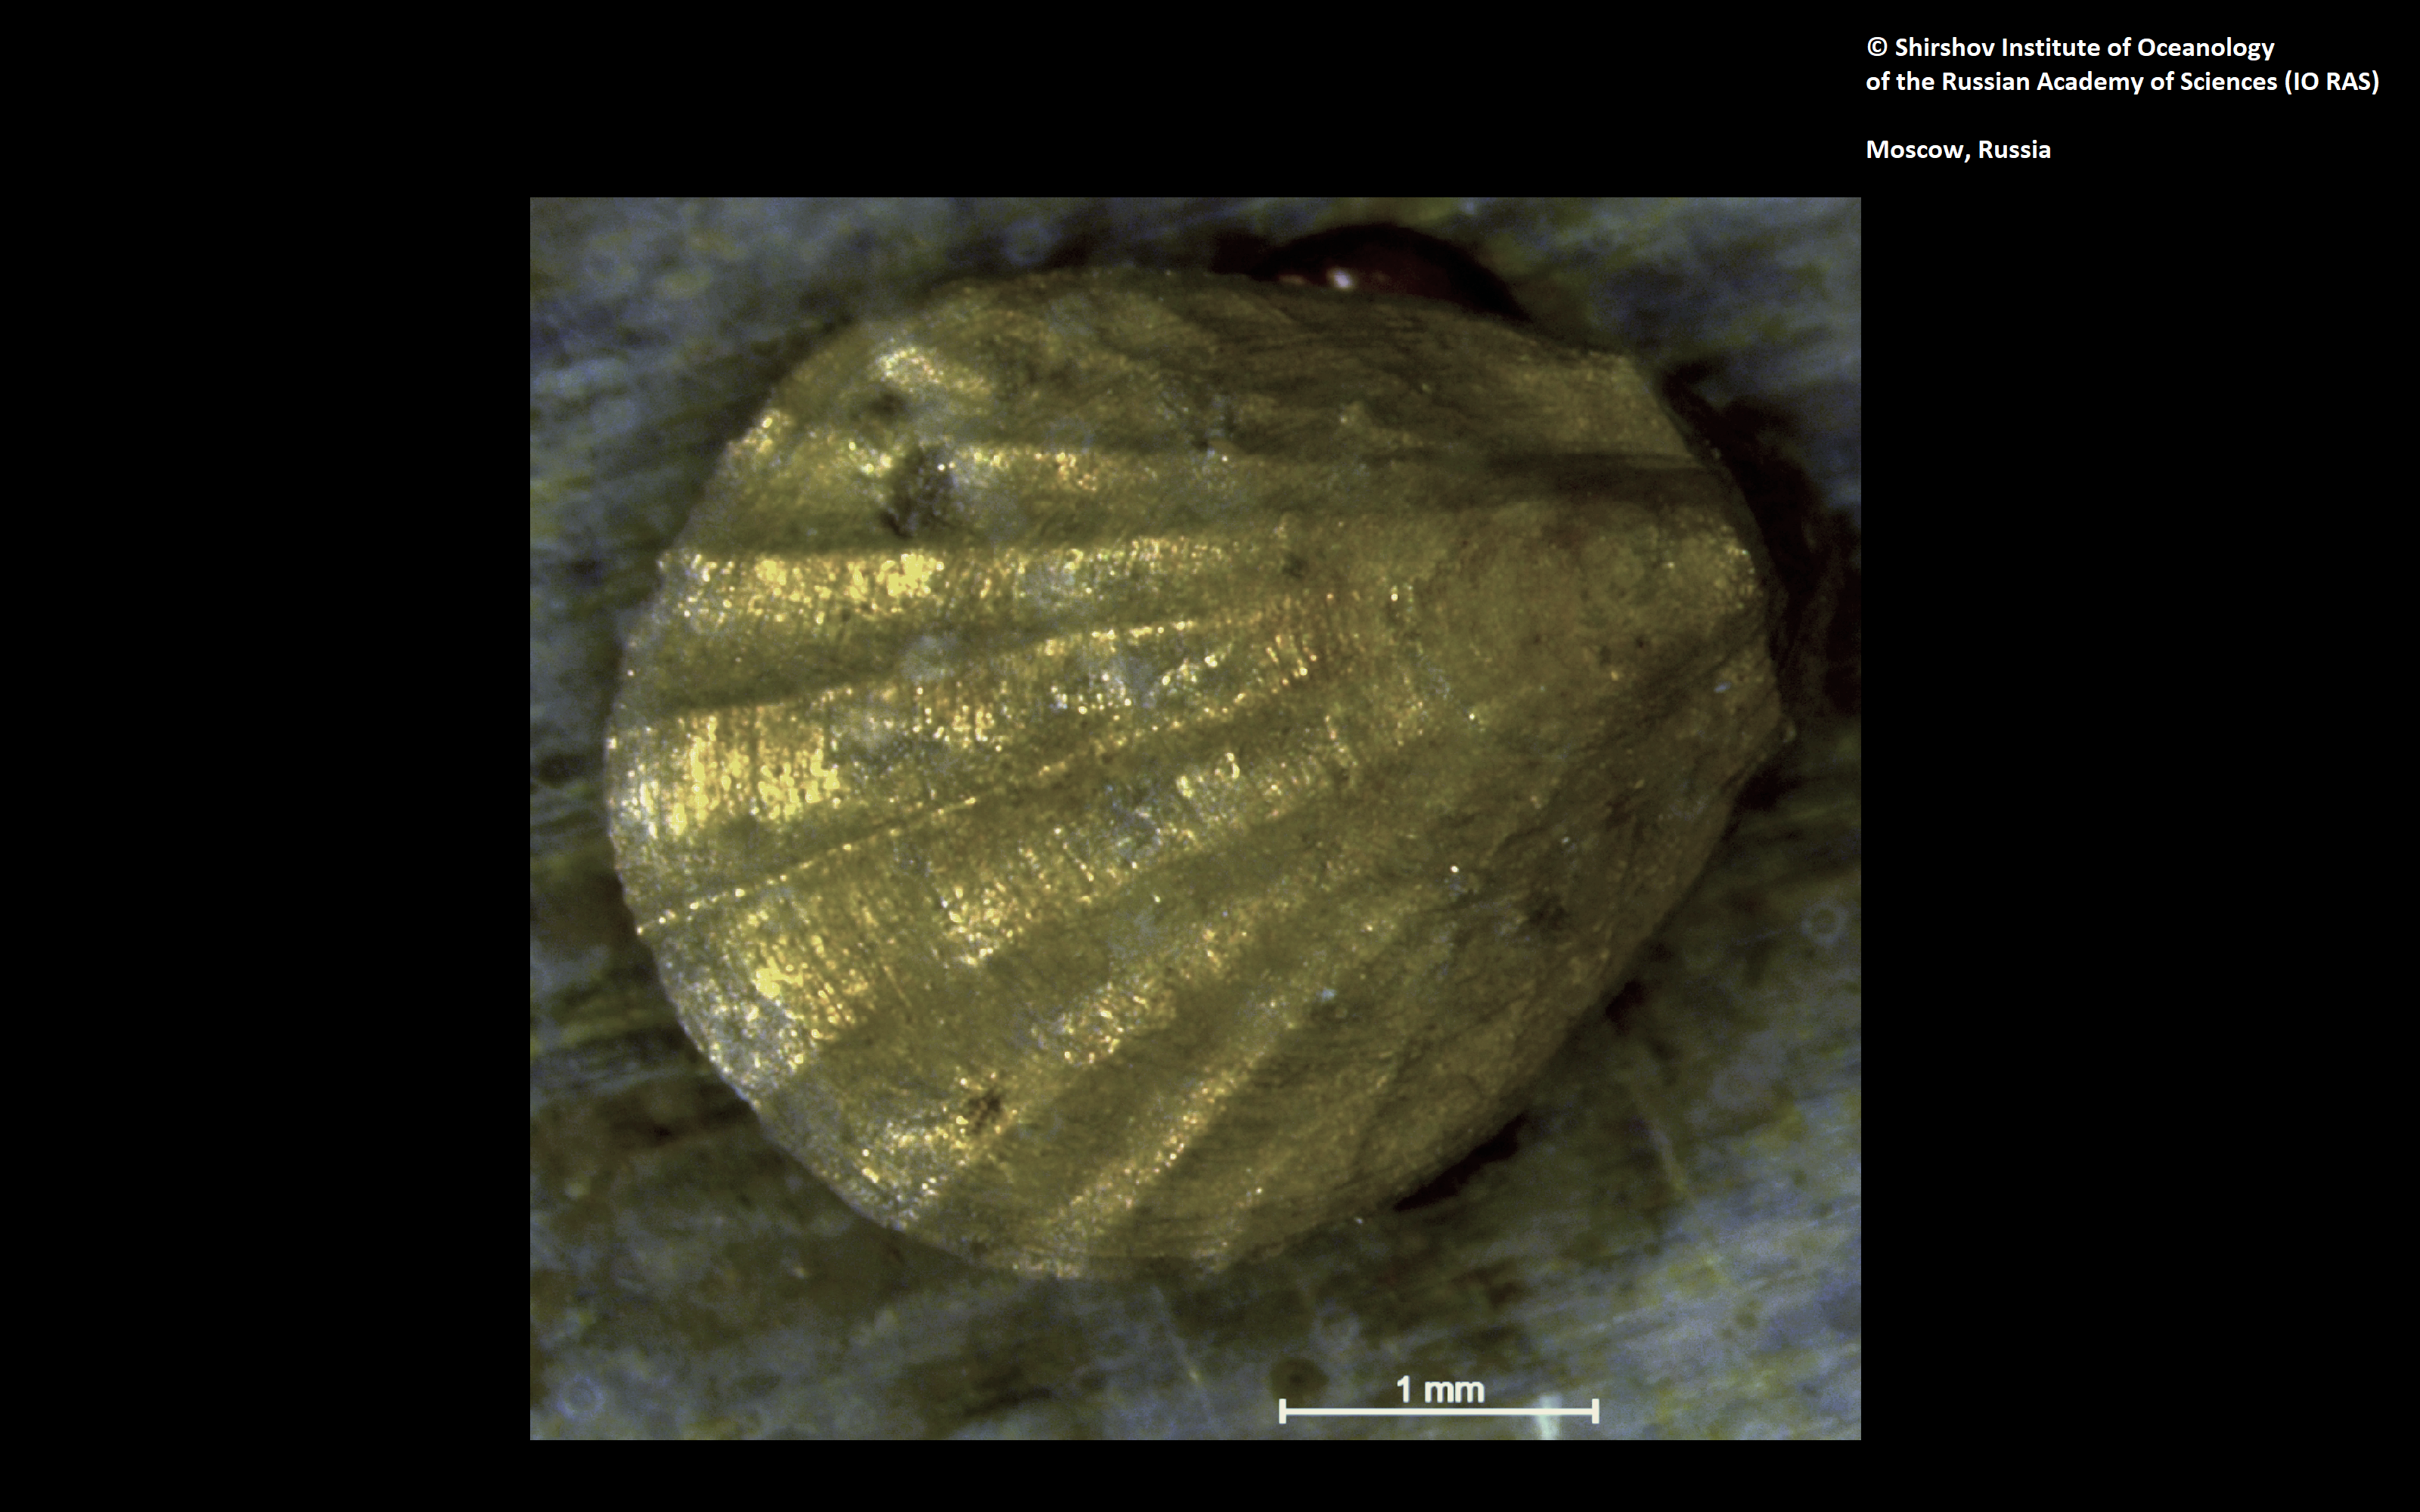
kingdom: Animalia
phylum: Brachiopoda
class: Rhynchonellata
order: Terebratulida
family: Chlidonophoridae
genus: Bathynanus
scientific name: Bathynanus inversus
